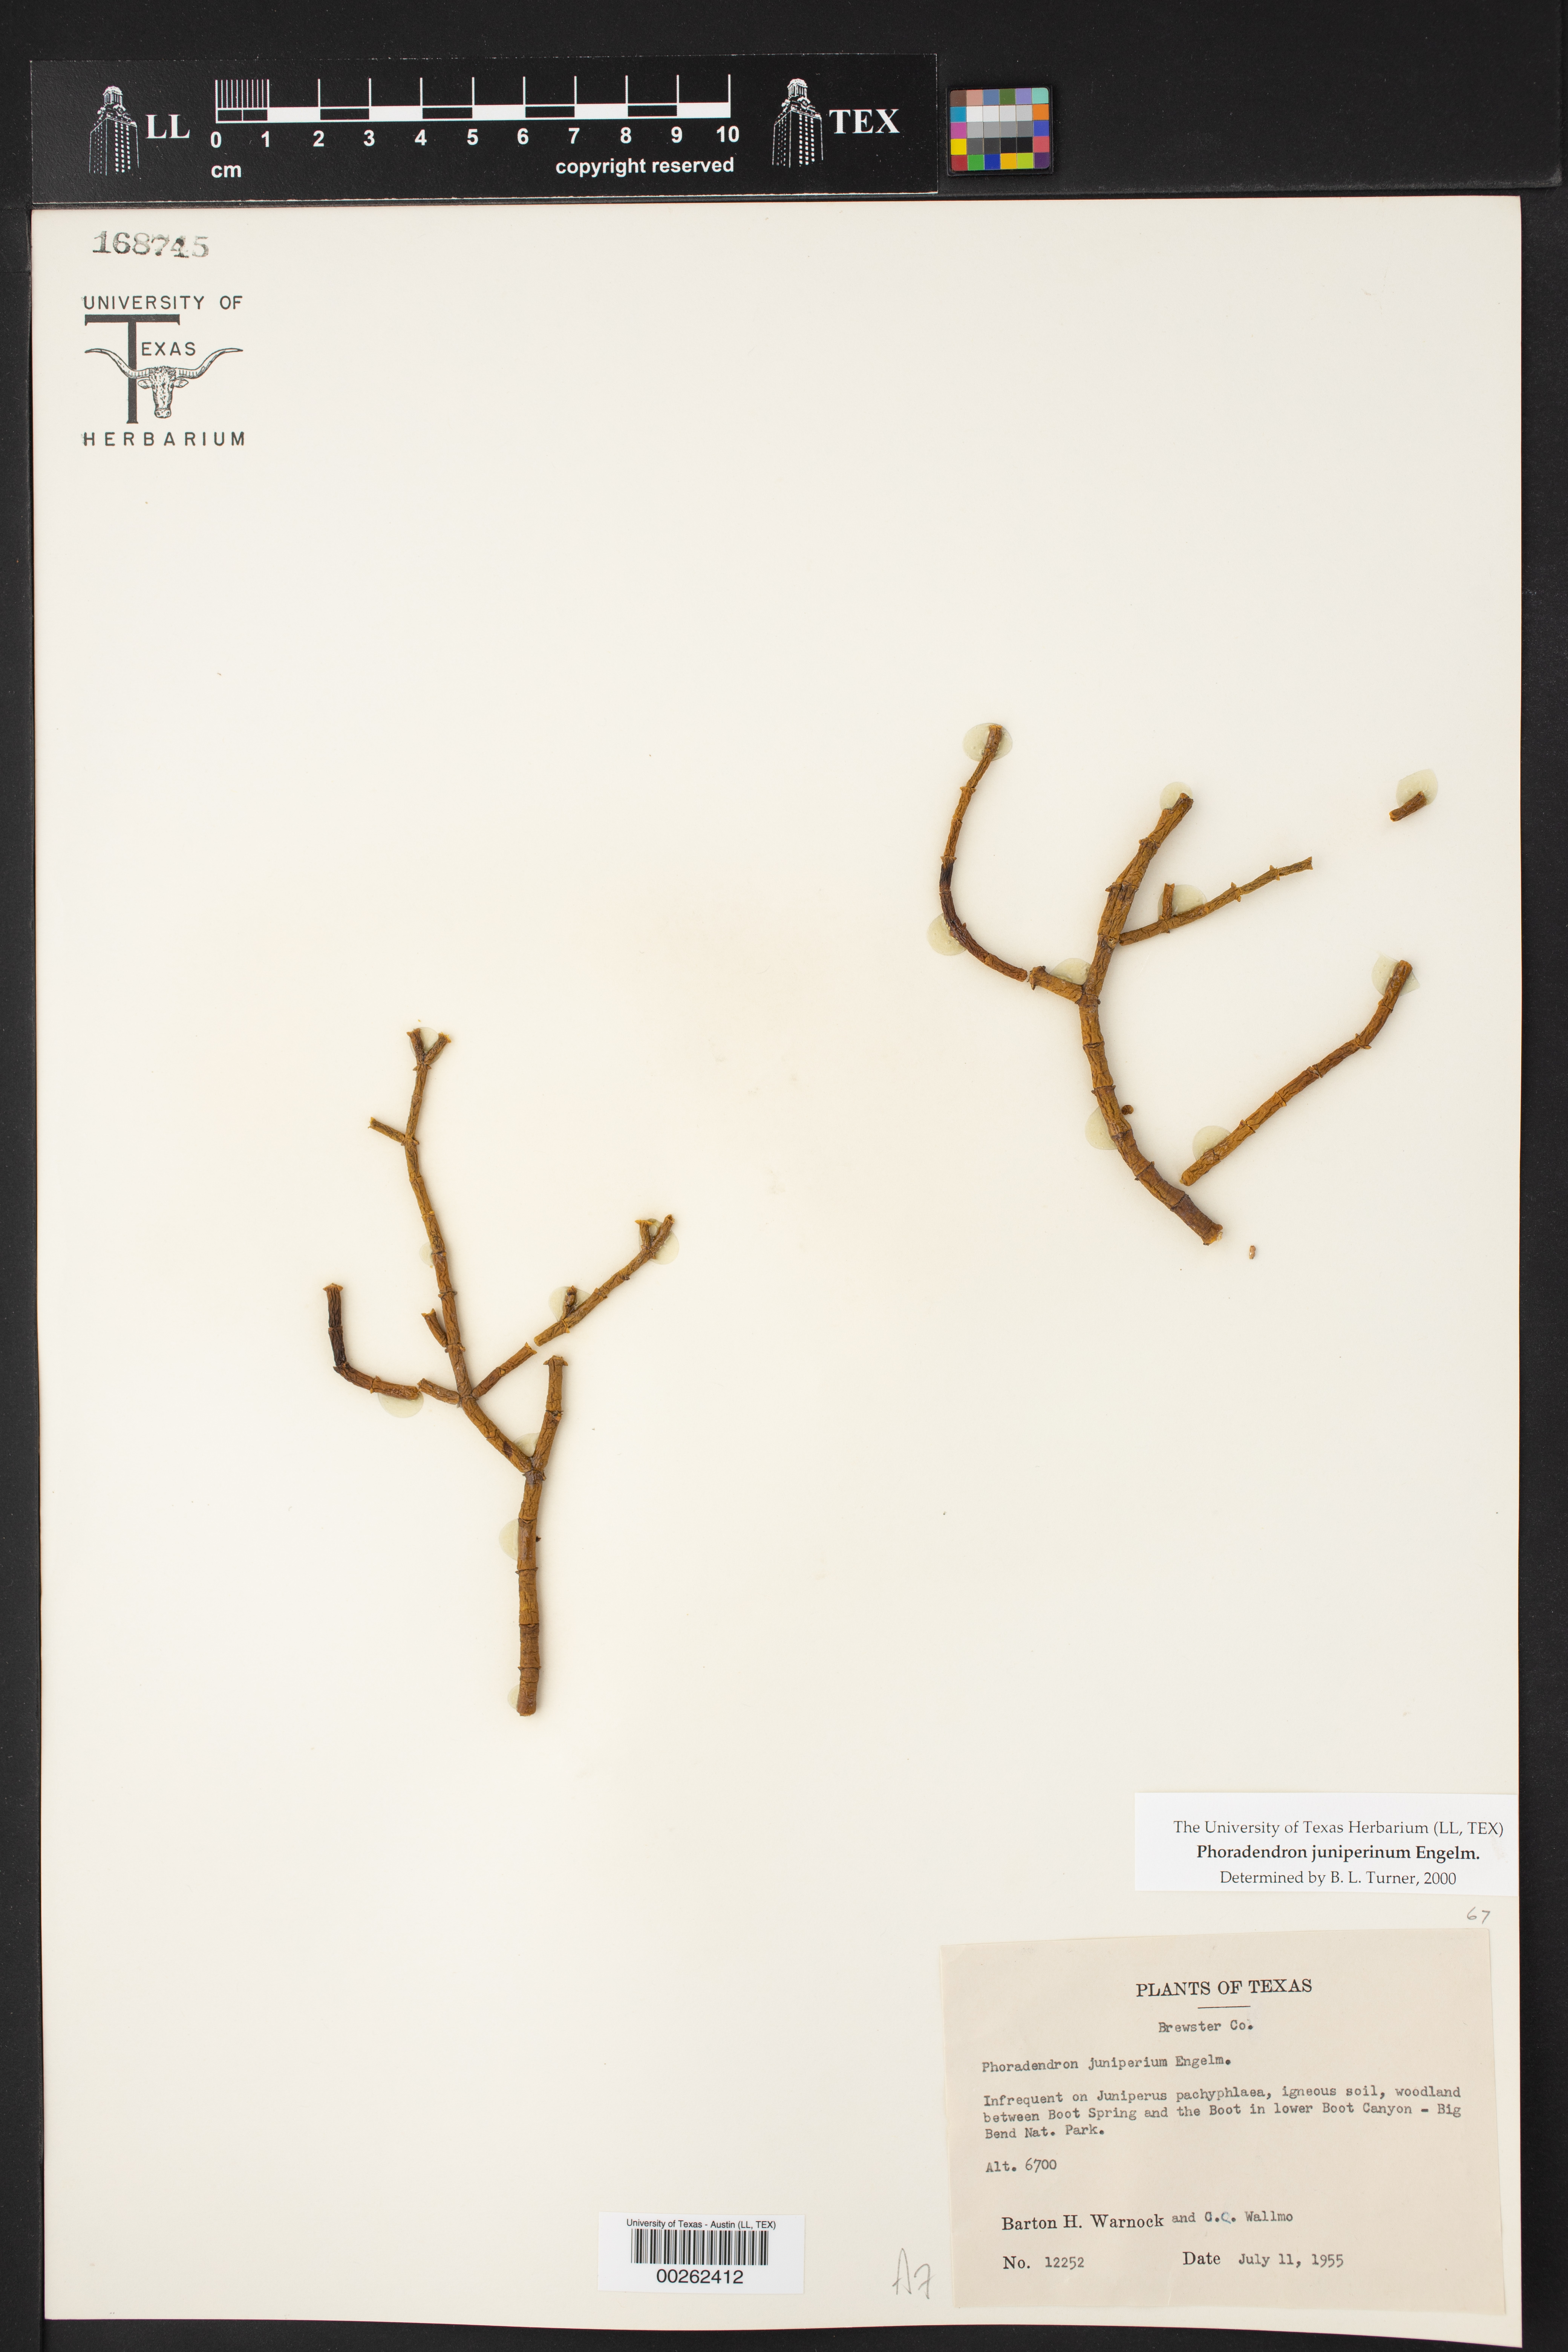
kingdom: Plantae
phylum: Tracheophyta
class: Magnoliopsida
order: Santalales
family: Viscaceae
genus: Phoradendron
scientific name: Phoradendron juniperinum
